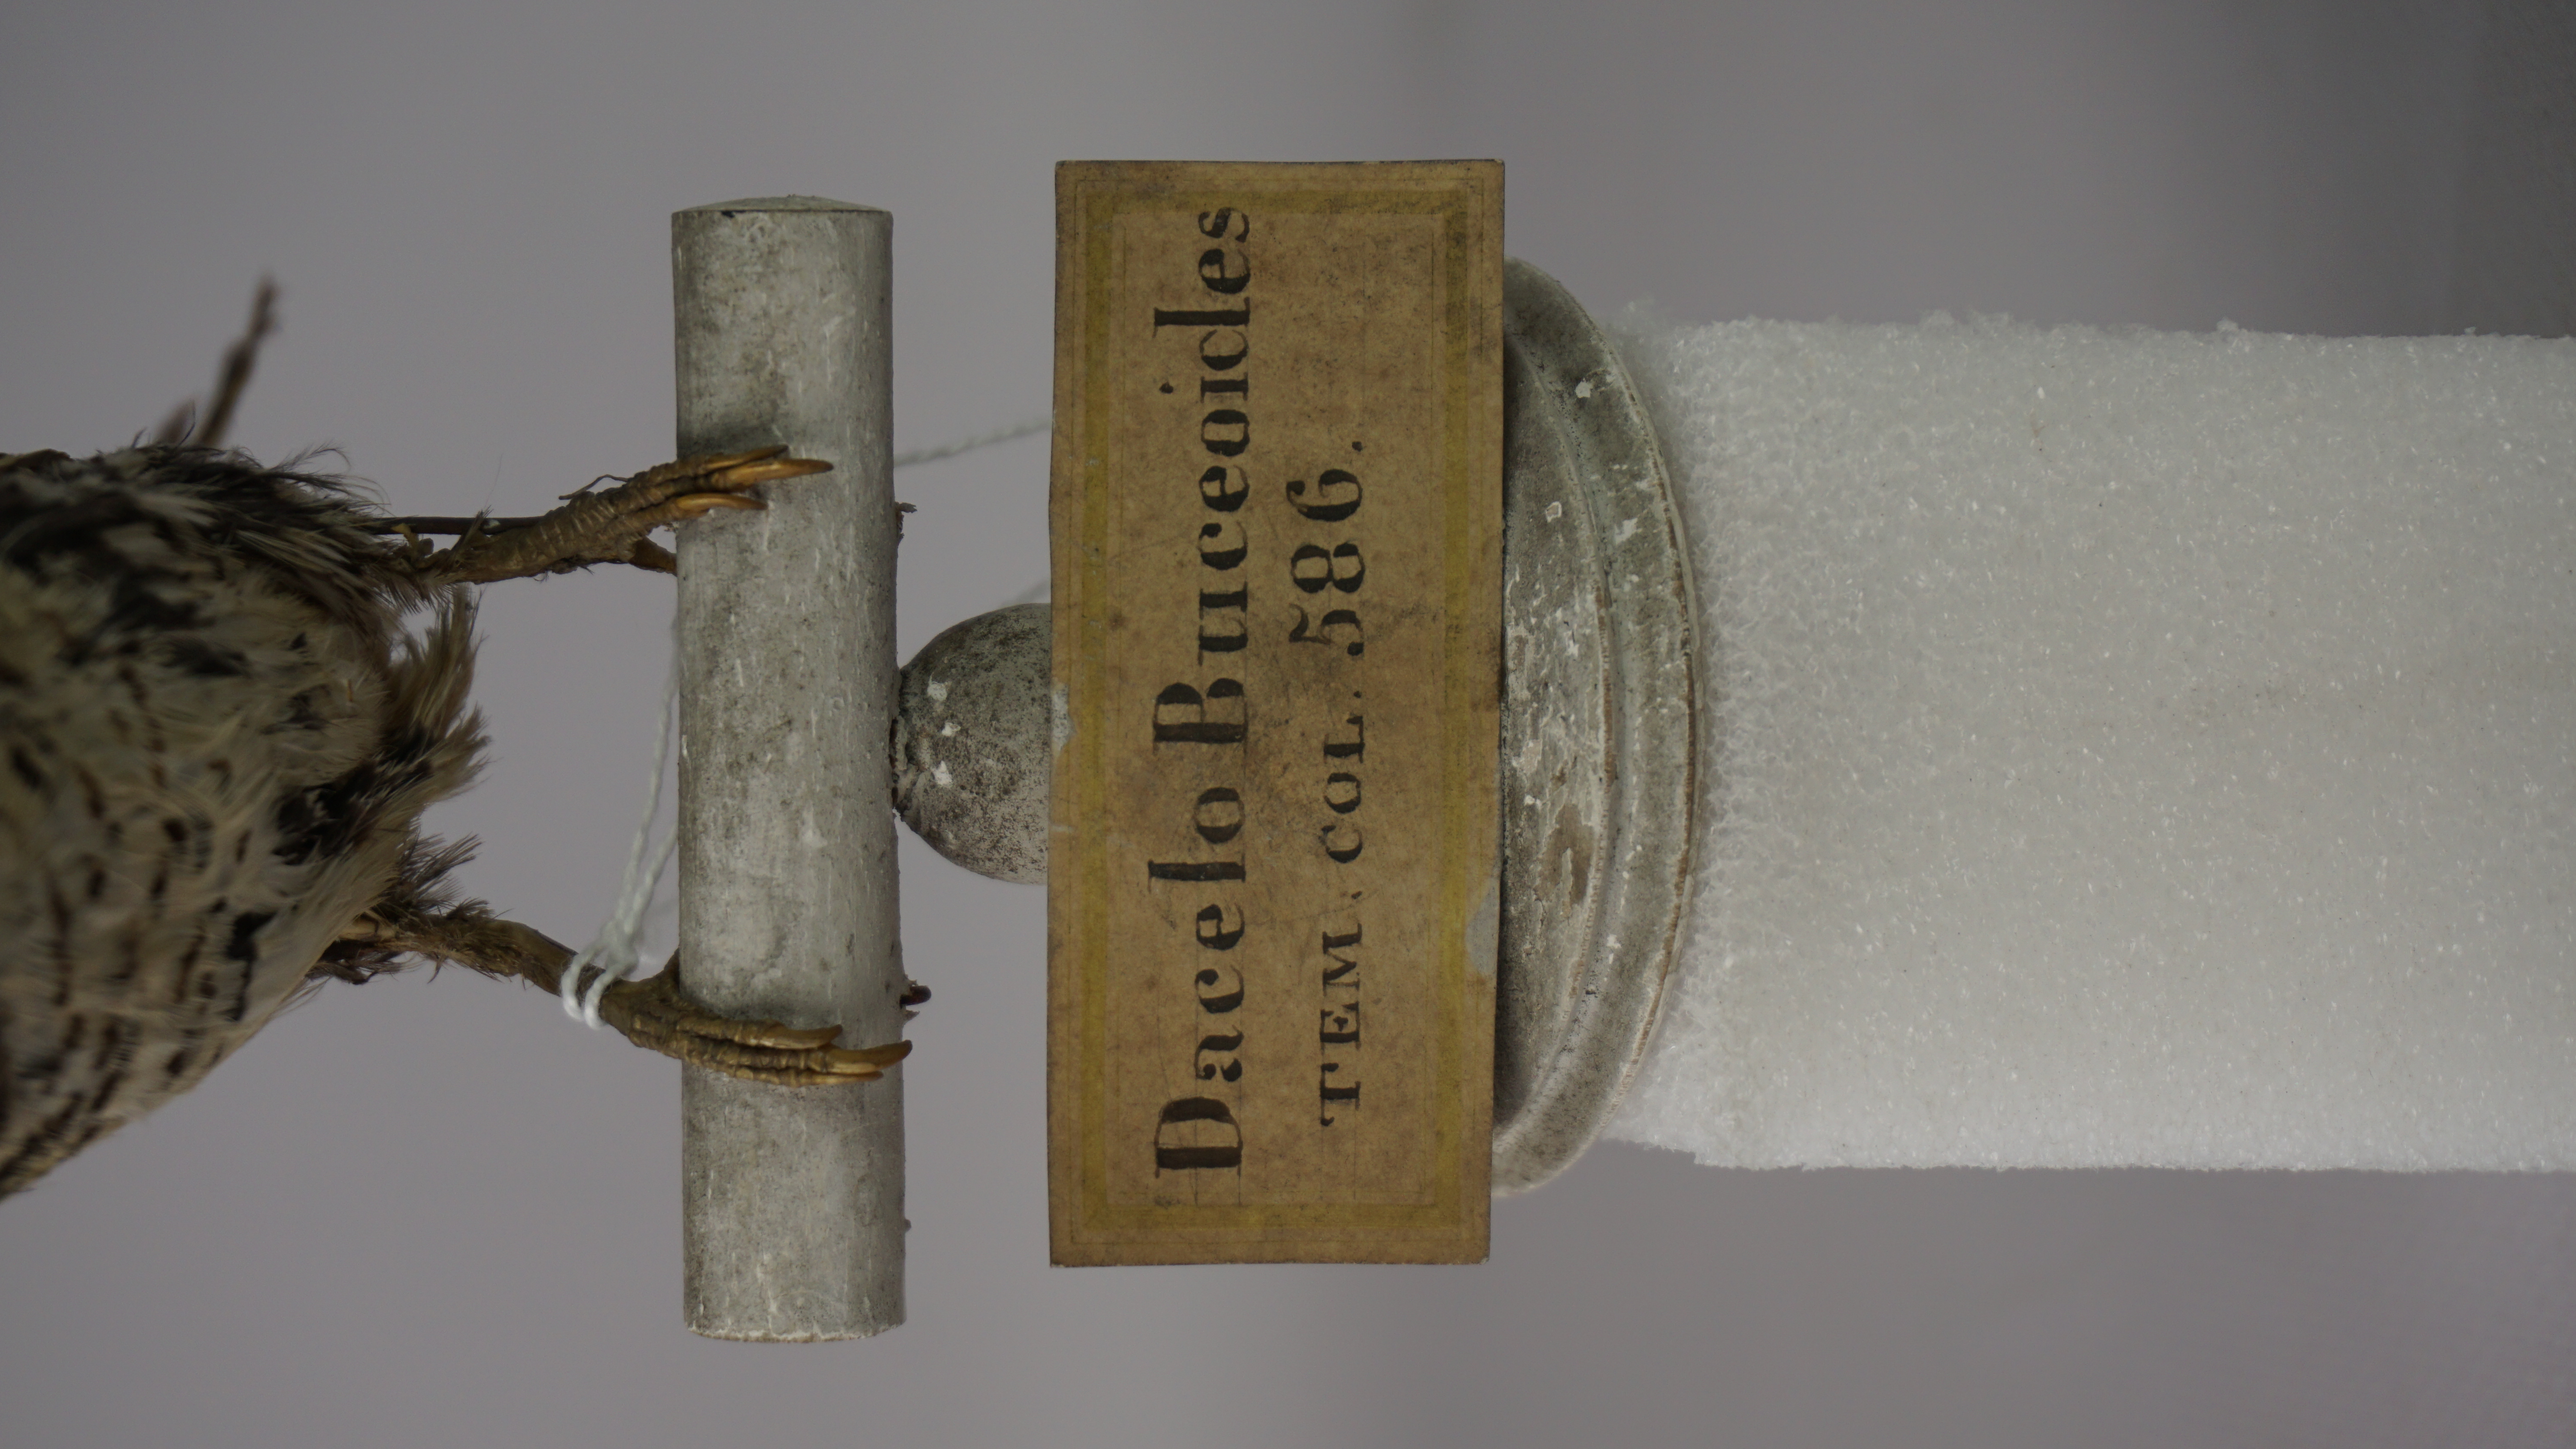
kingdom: Animalia
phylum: Chordata
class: Aves
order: Coraciiformes
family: Alcedinidae
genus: Lacedo
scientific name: Lacedo pulchella
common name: Banded kingfisher
